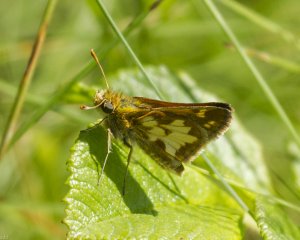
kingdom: Animalia
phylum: Arthropoda
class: Insecta
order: Lepidoptera
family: Hesperiidae
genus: Polites
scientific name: Polites coras
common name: Peck's Skipper
